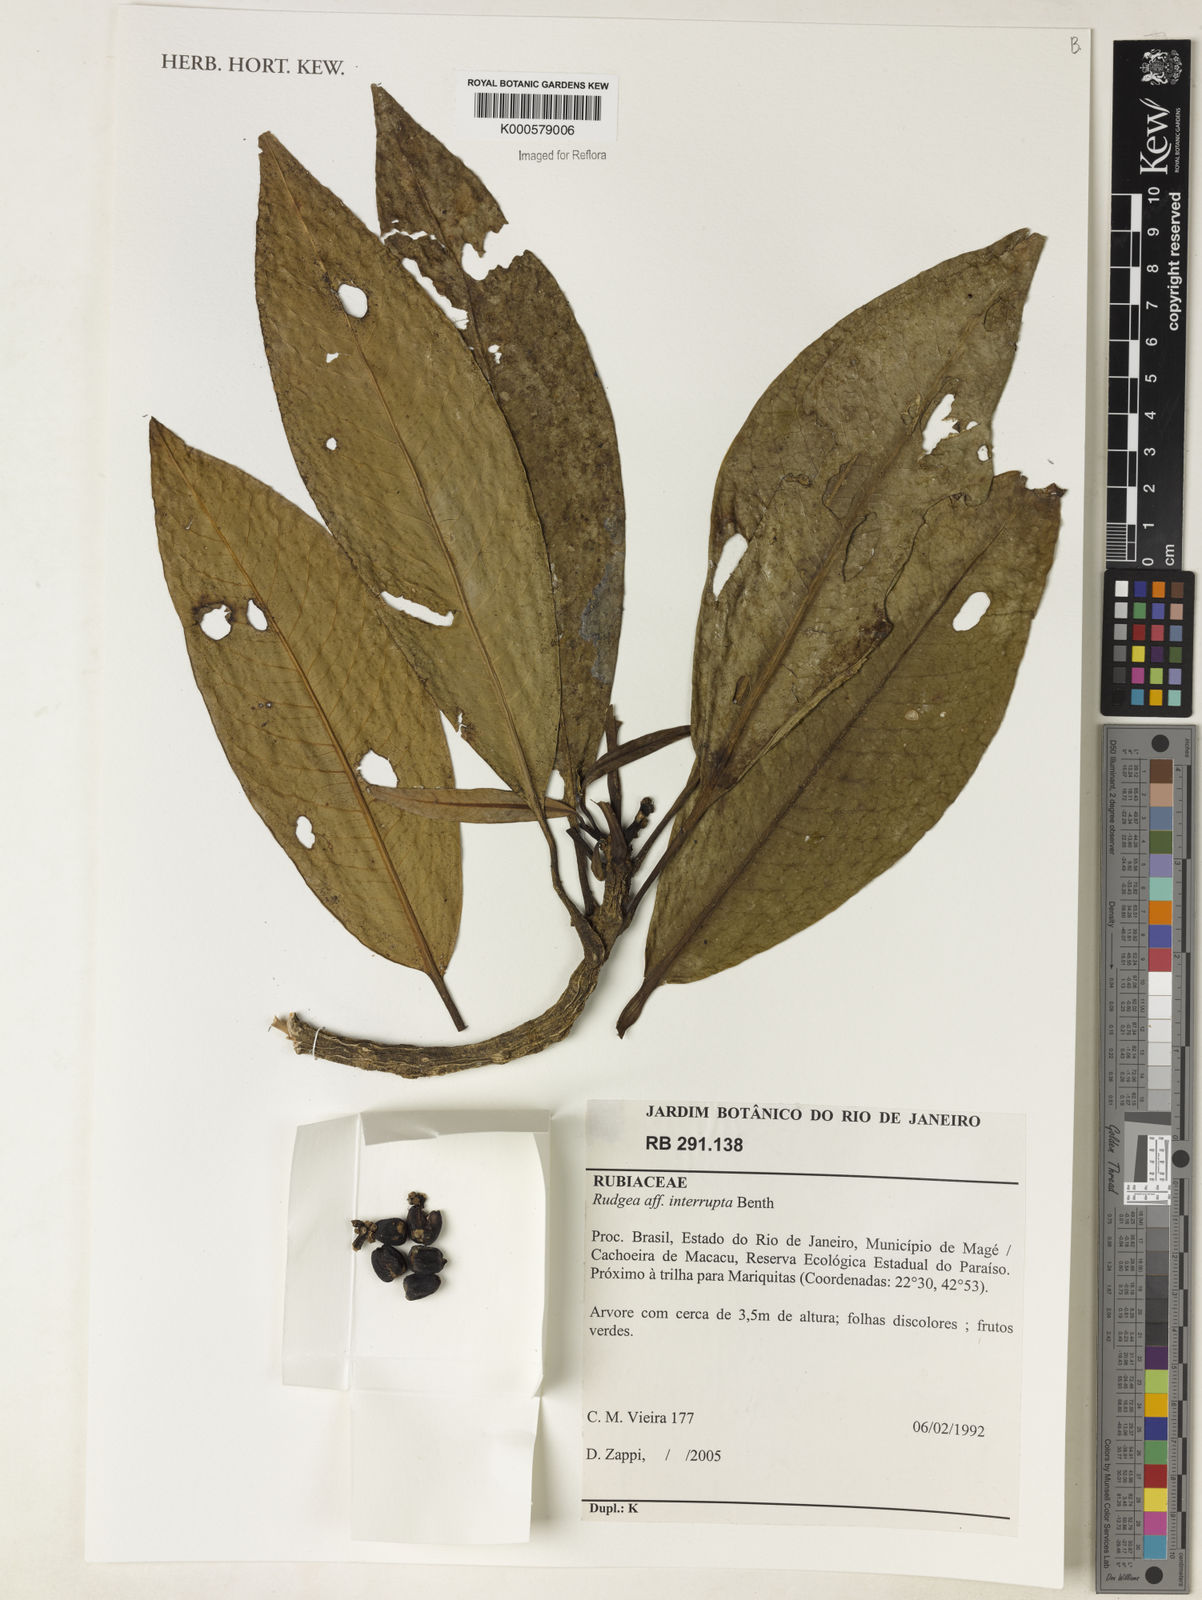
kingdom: Plantae
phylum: Tracheophyta
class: Magnoliopsida
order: Gentianales
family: Rubiaceae
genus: Rudgea
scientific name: Rudgea interrupta
